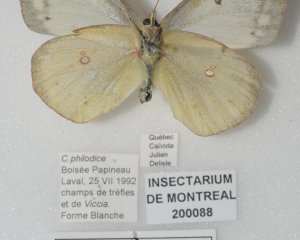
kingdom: Animalia
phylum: Arthropoda
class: Insecta
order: Lepidoptera
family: Pieridae
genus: Colias
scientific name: Colias philodice
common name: Clouded Sulphur
